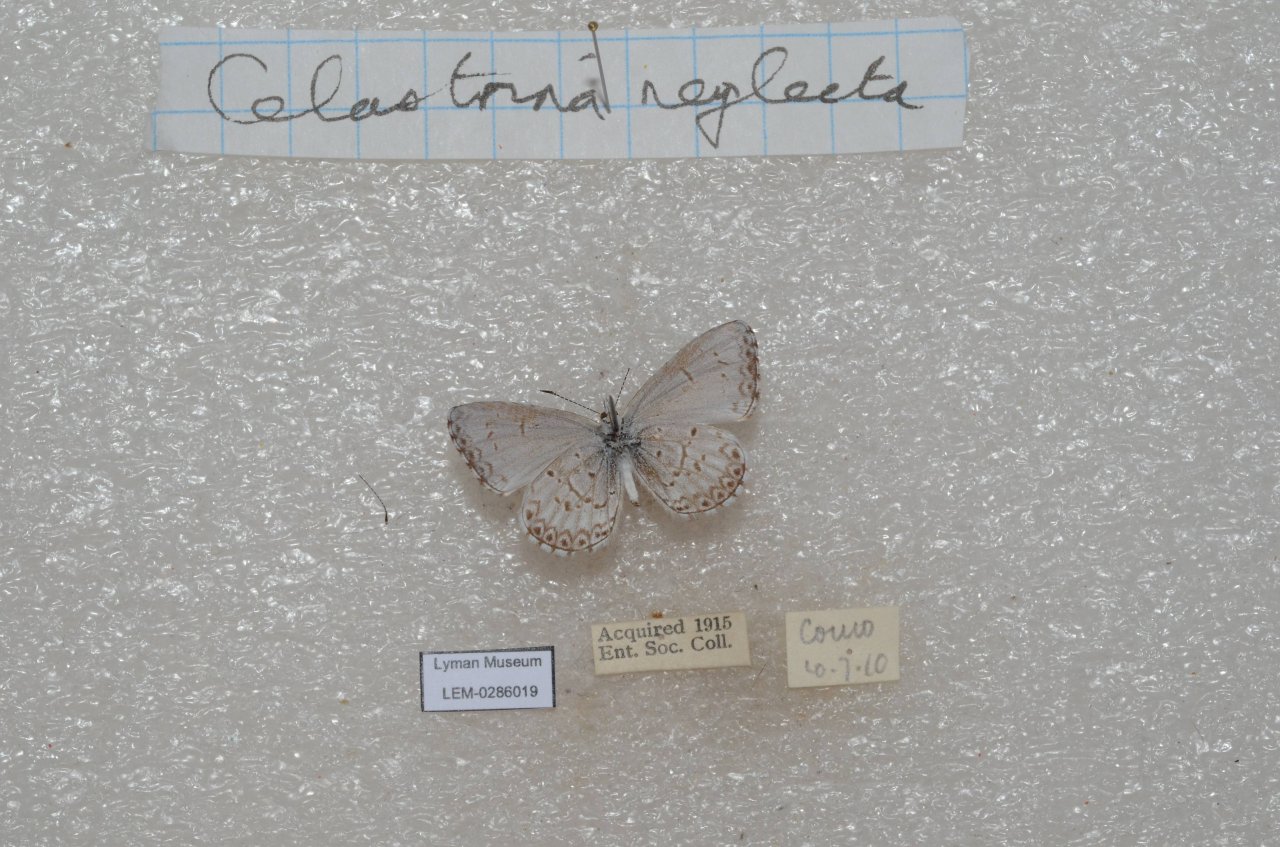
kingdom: Animalia
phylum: Arthropoda
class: Insecta
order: Lepidoptera
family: Lycaenidae
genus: Cyaniris
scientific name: Cyaniris neglecta
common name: Summer Azure
